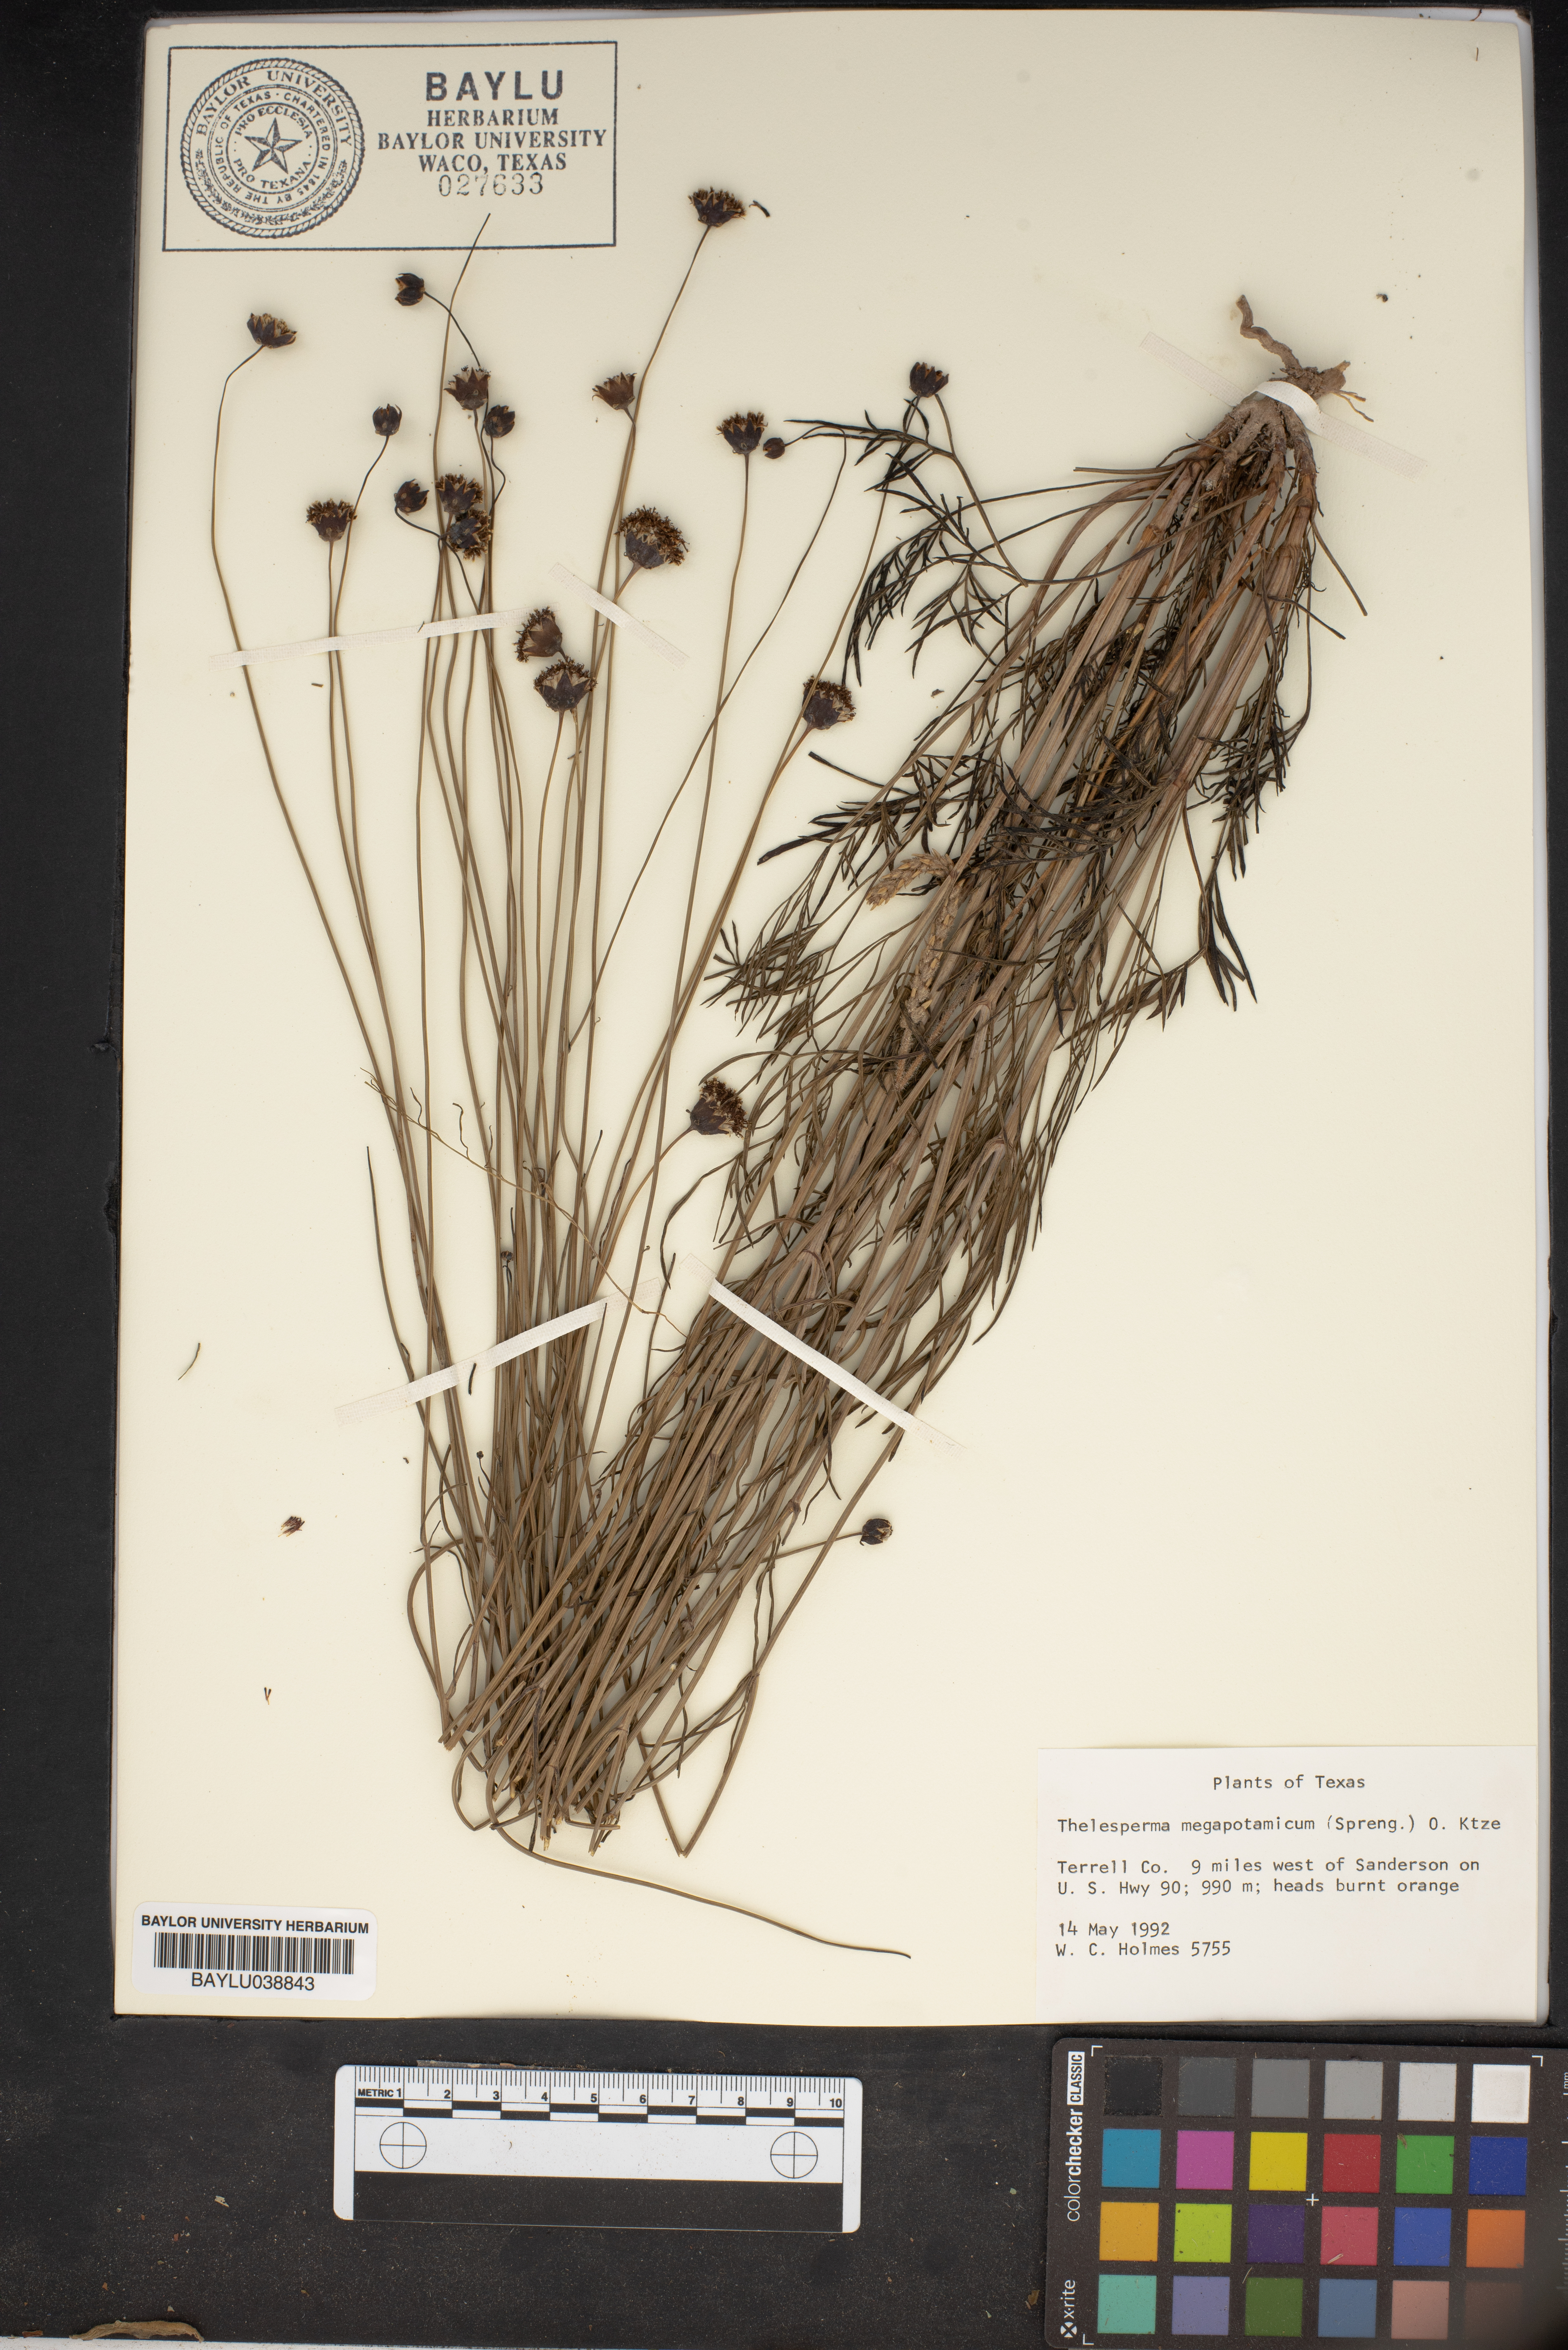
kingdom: Plantae
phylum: Tracheophyta
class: Magnoliopsida
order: Asterales
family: Asteraceae
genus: Thelesperma
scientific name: Thelesperma megapotamicum
